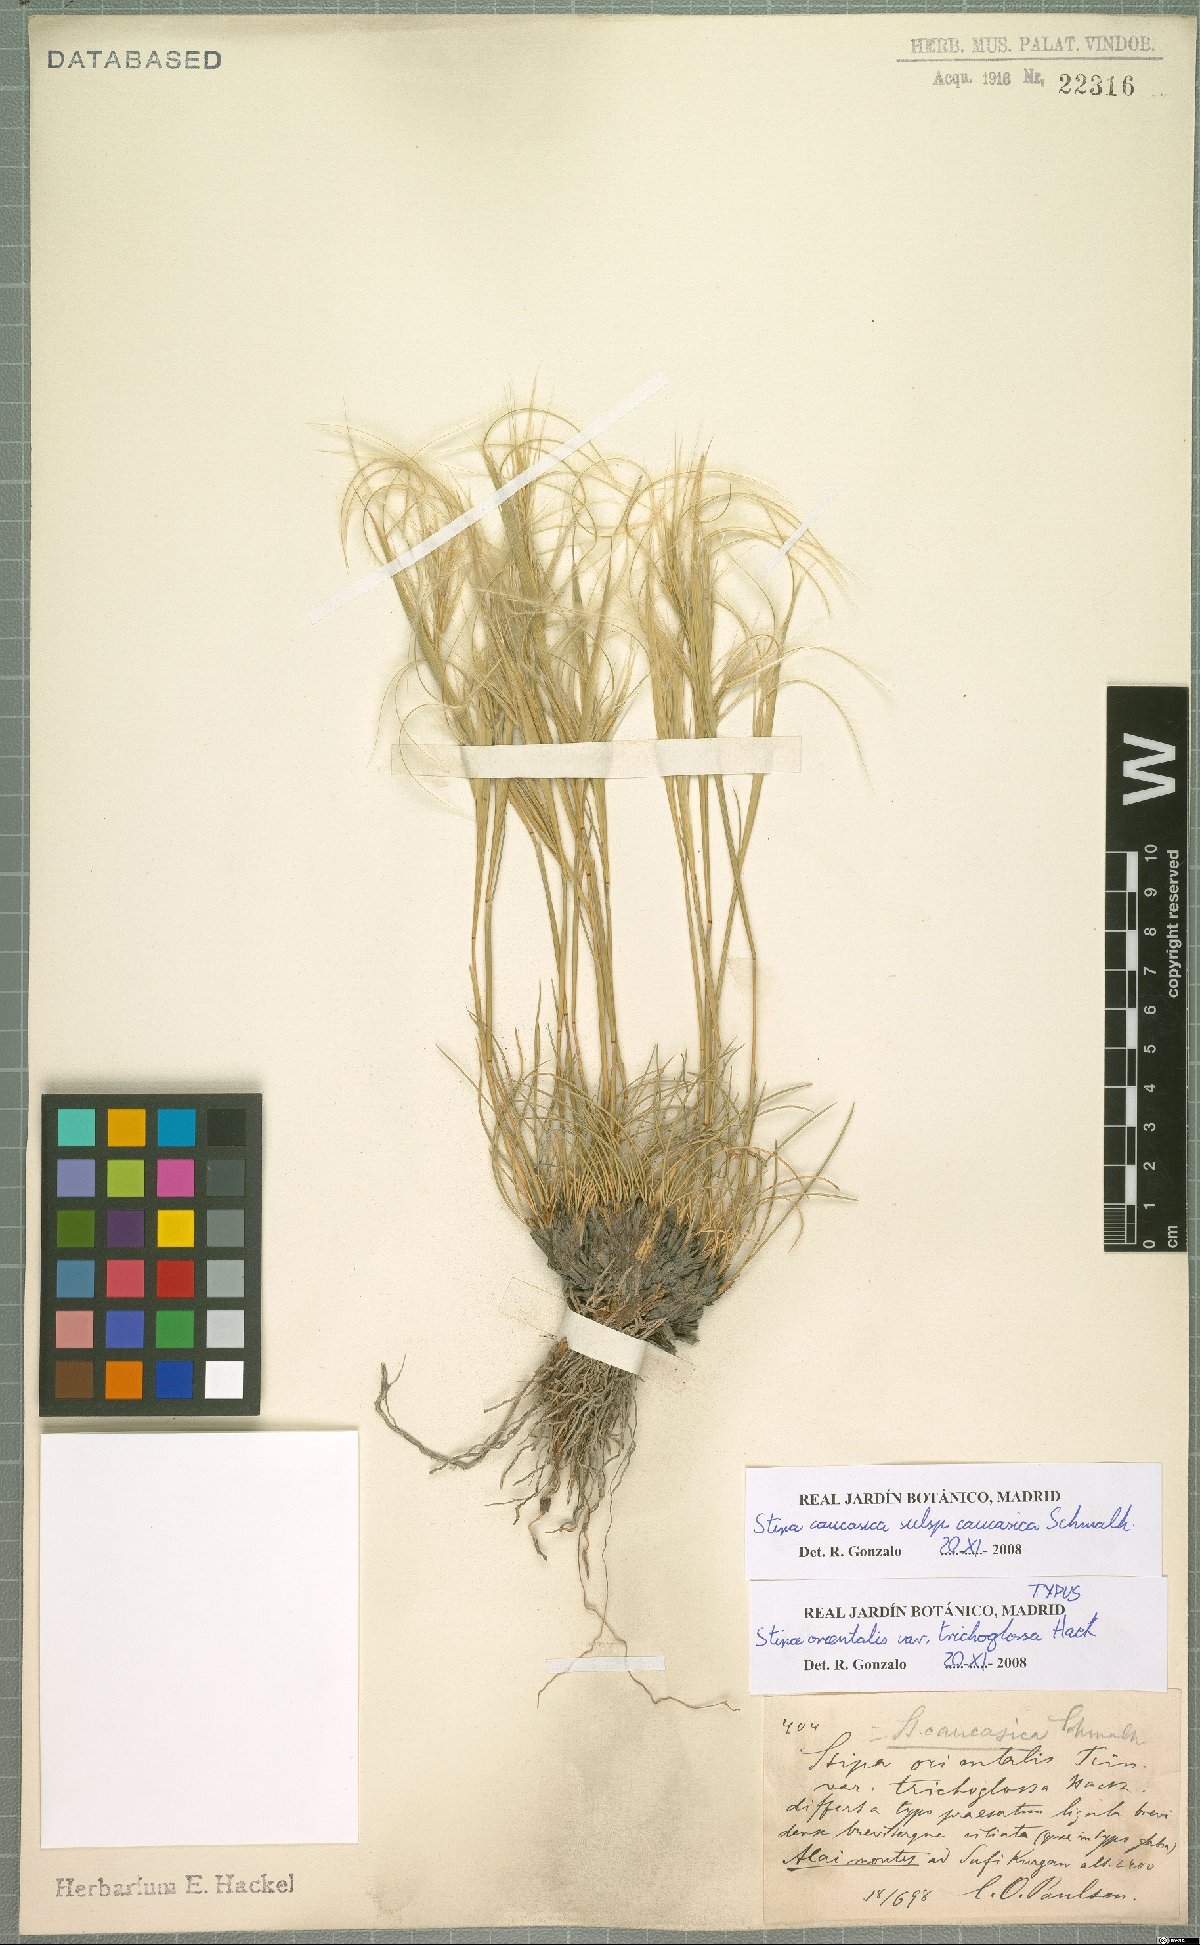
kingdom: Plantae
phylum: Tracheophyta
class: Liliopsida
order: Poales
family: Poaceae
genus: Stipa
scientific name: Stipa caucasica
